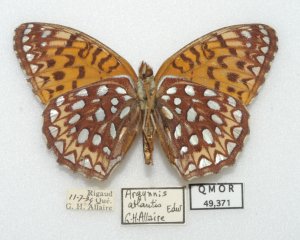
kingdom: Animalia
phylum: Arthropoda
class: Insecta
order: Lepidoptera
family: Nymphalidae
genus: Speyeria
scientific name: Speyeria atlantis
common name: Atlantis Fritillary
